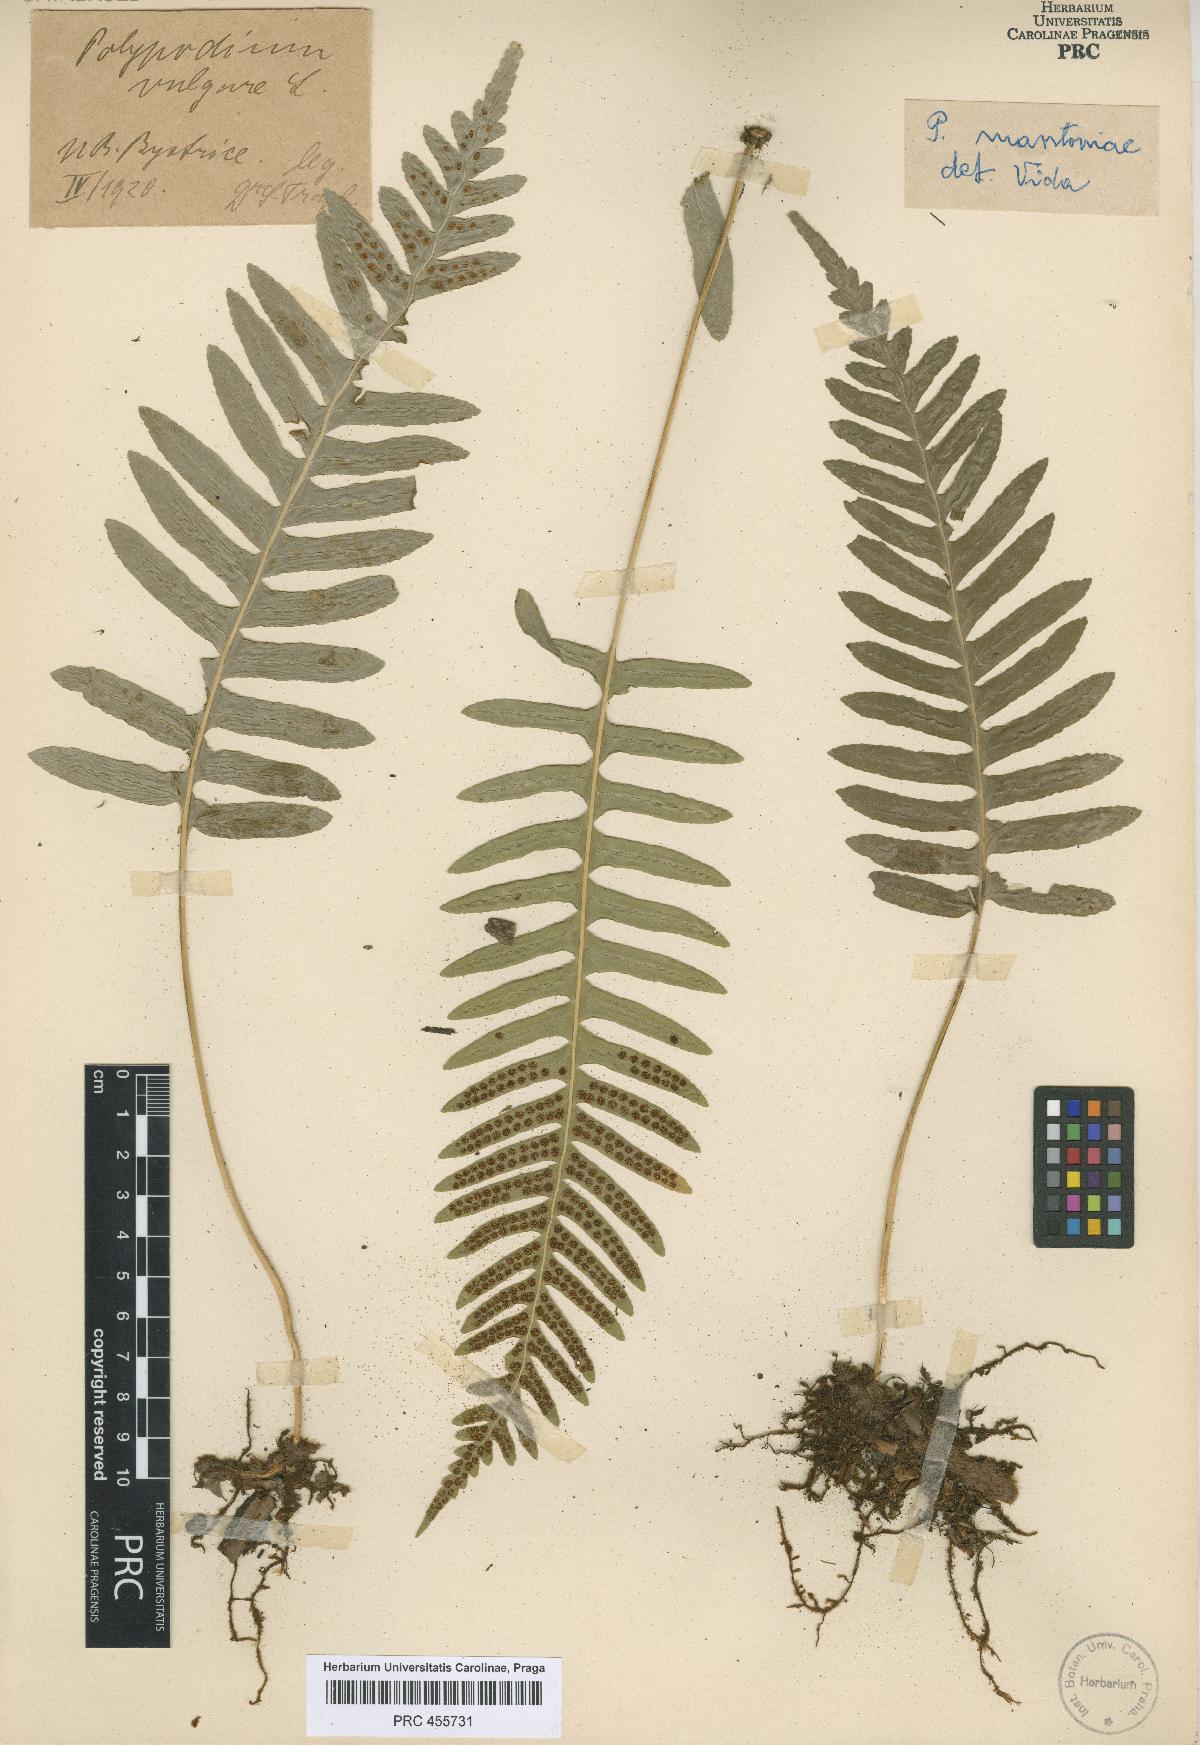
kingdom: Plantae
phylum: Tracheophyta
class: Polypodiopsida
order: Polypodiales
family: Polypodiaceae
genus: Polypodium
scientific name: Polypodium mantoniae
